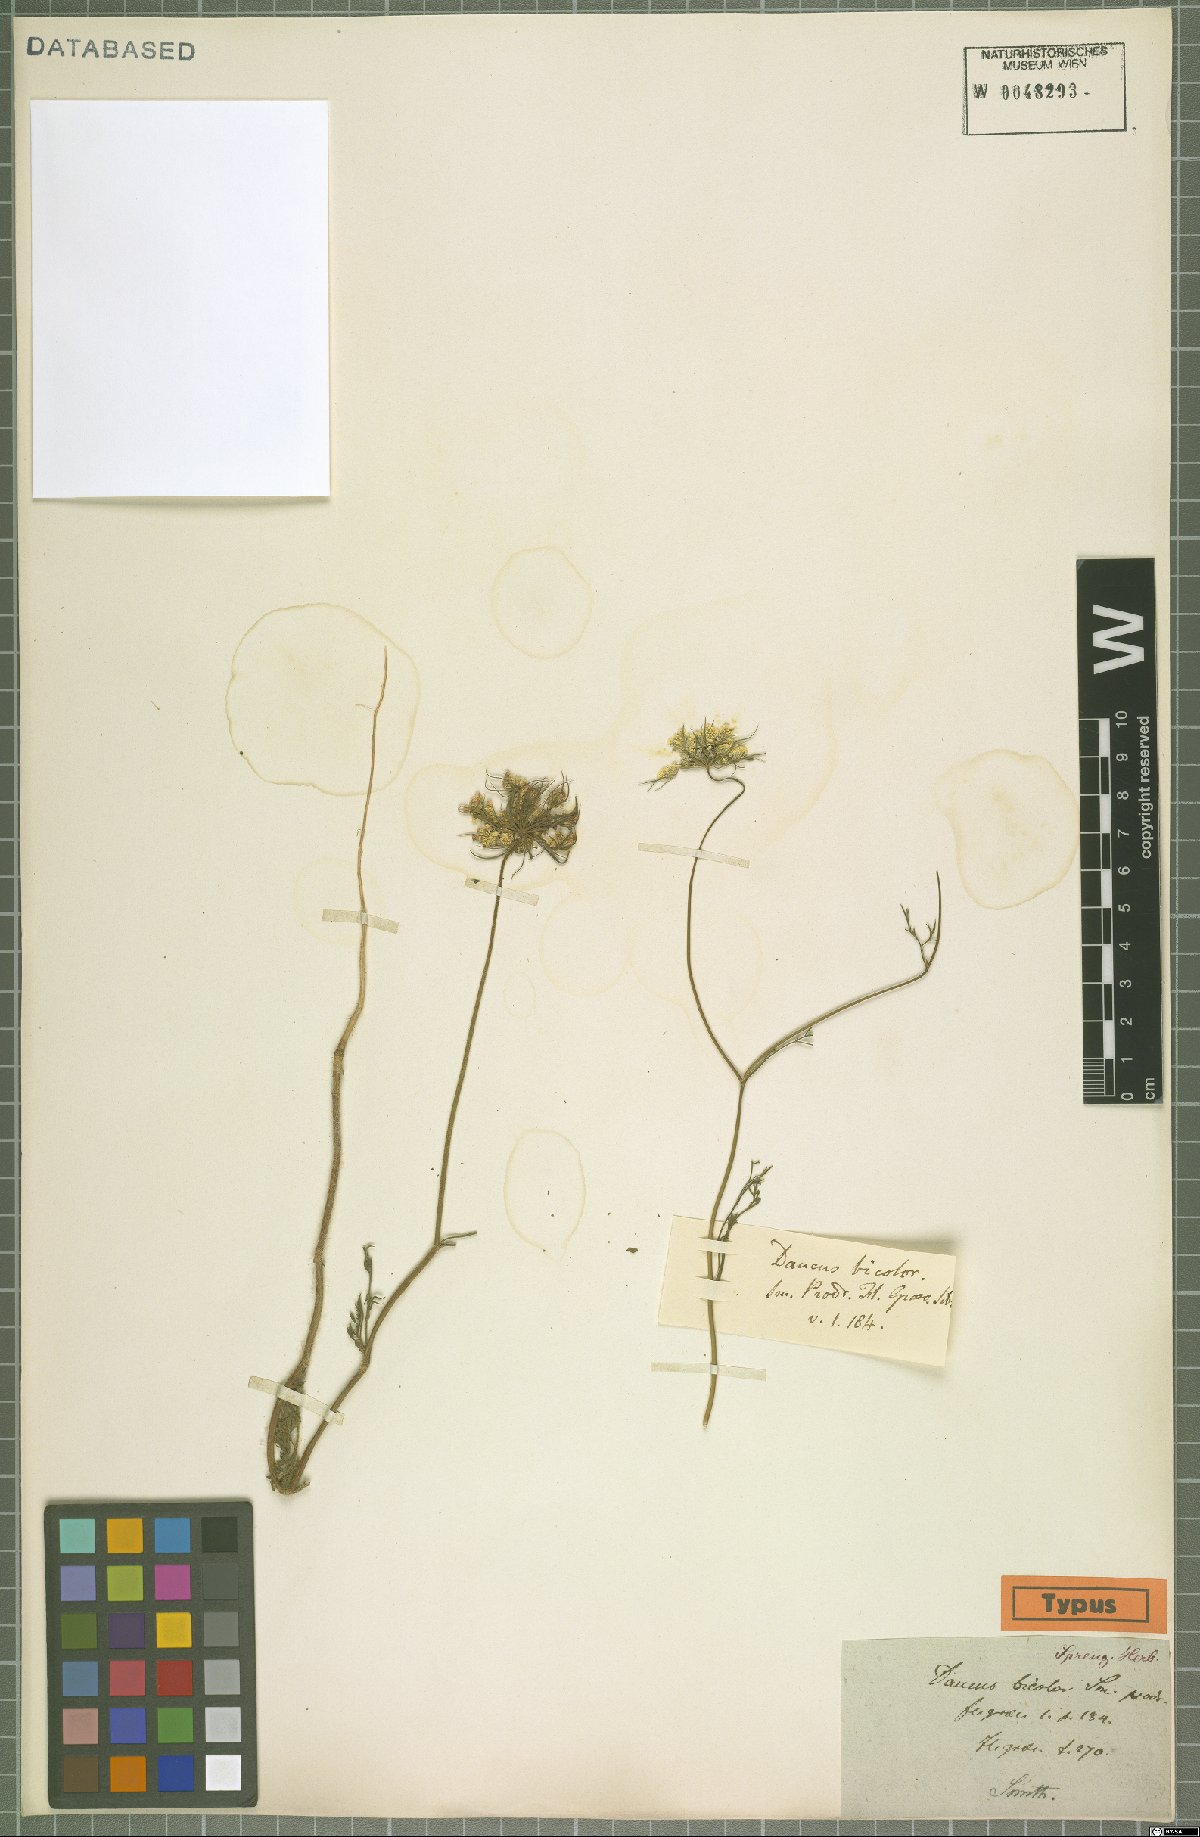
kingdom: Plantae
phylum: Tracheophyta
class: Magnoliopsida
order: Apiales
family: Apiaceae
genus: Daucus
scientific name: Daucus guttatus
